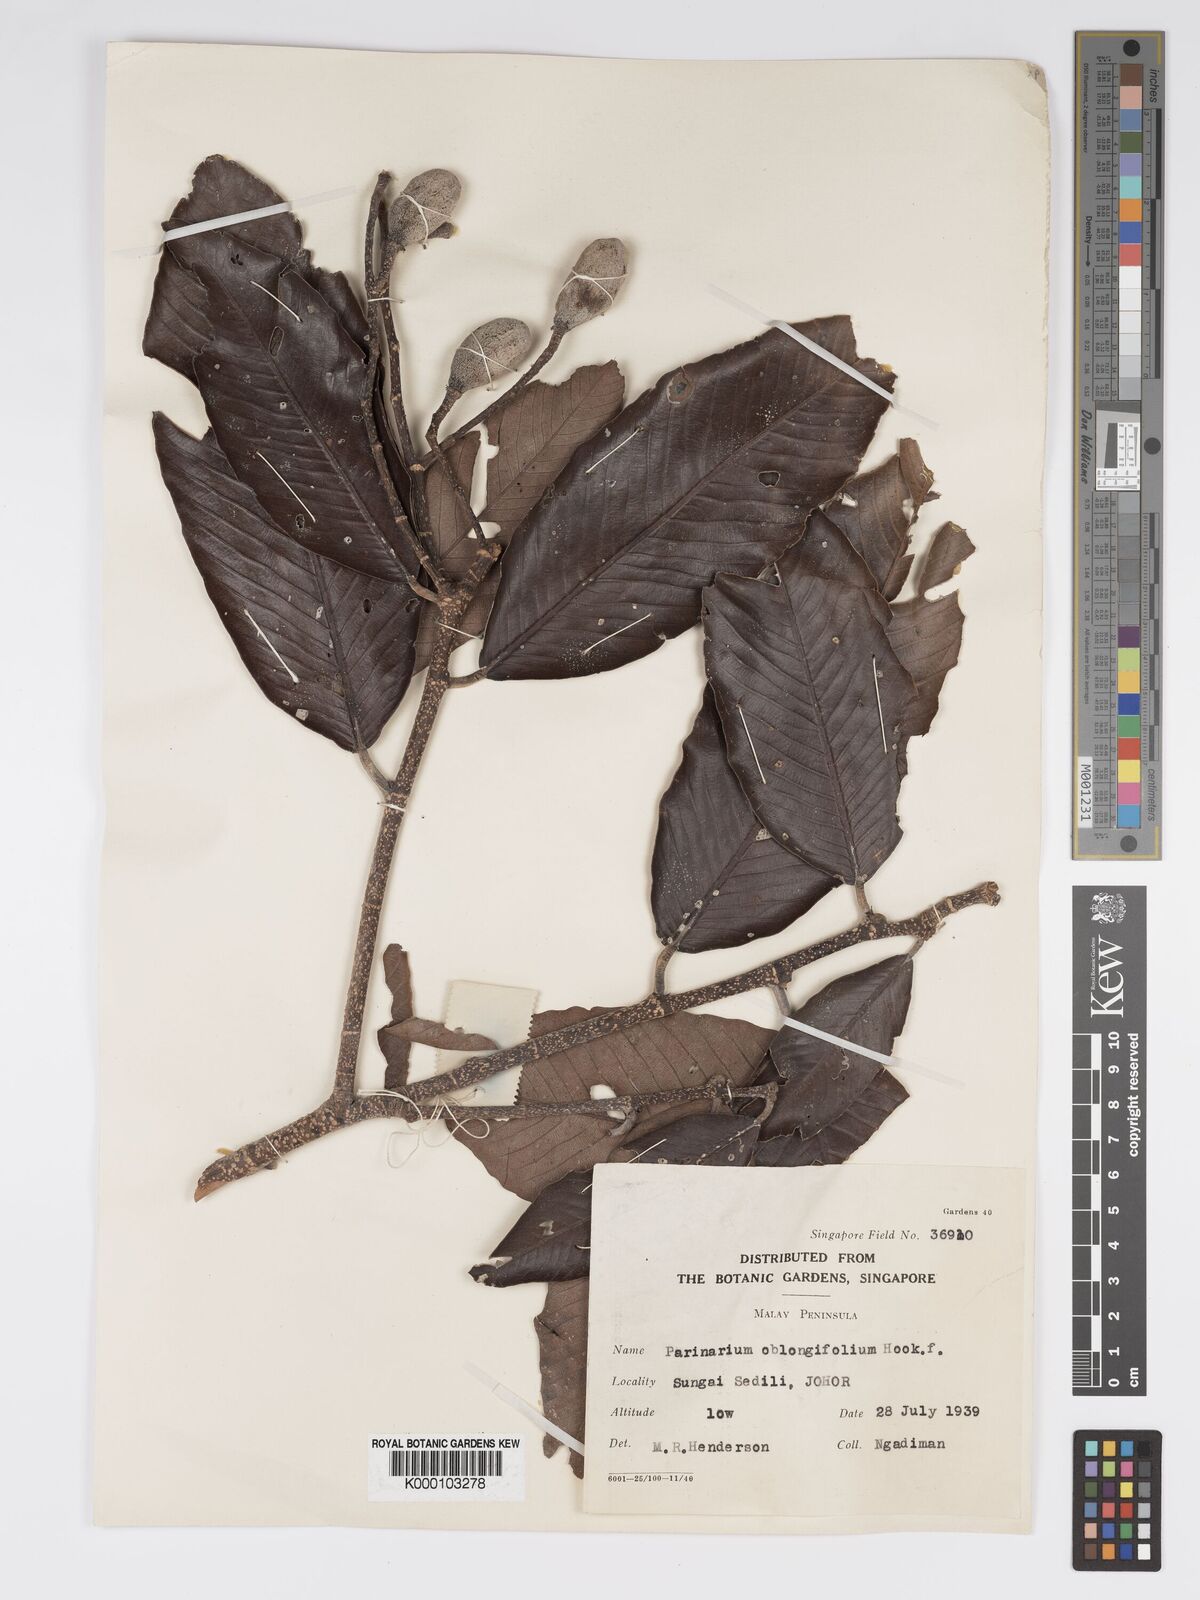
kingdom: Plantae
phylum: Tracheophyta
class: Magnoliopsida
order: Malpighiales
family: Chrysobalanaceae
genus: Parinari
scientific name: Parinari oblongifolia
